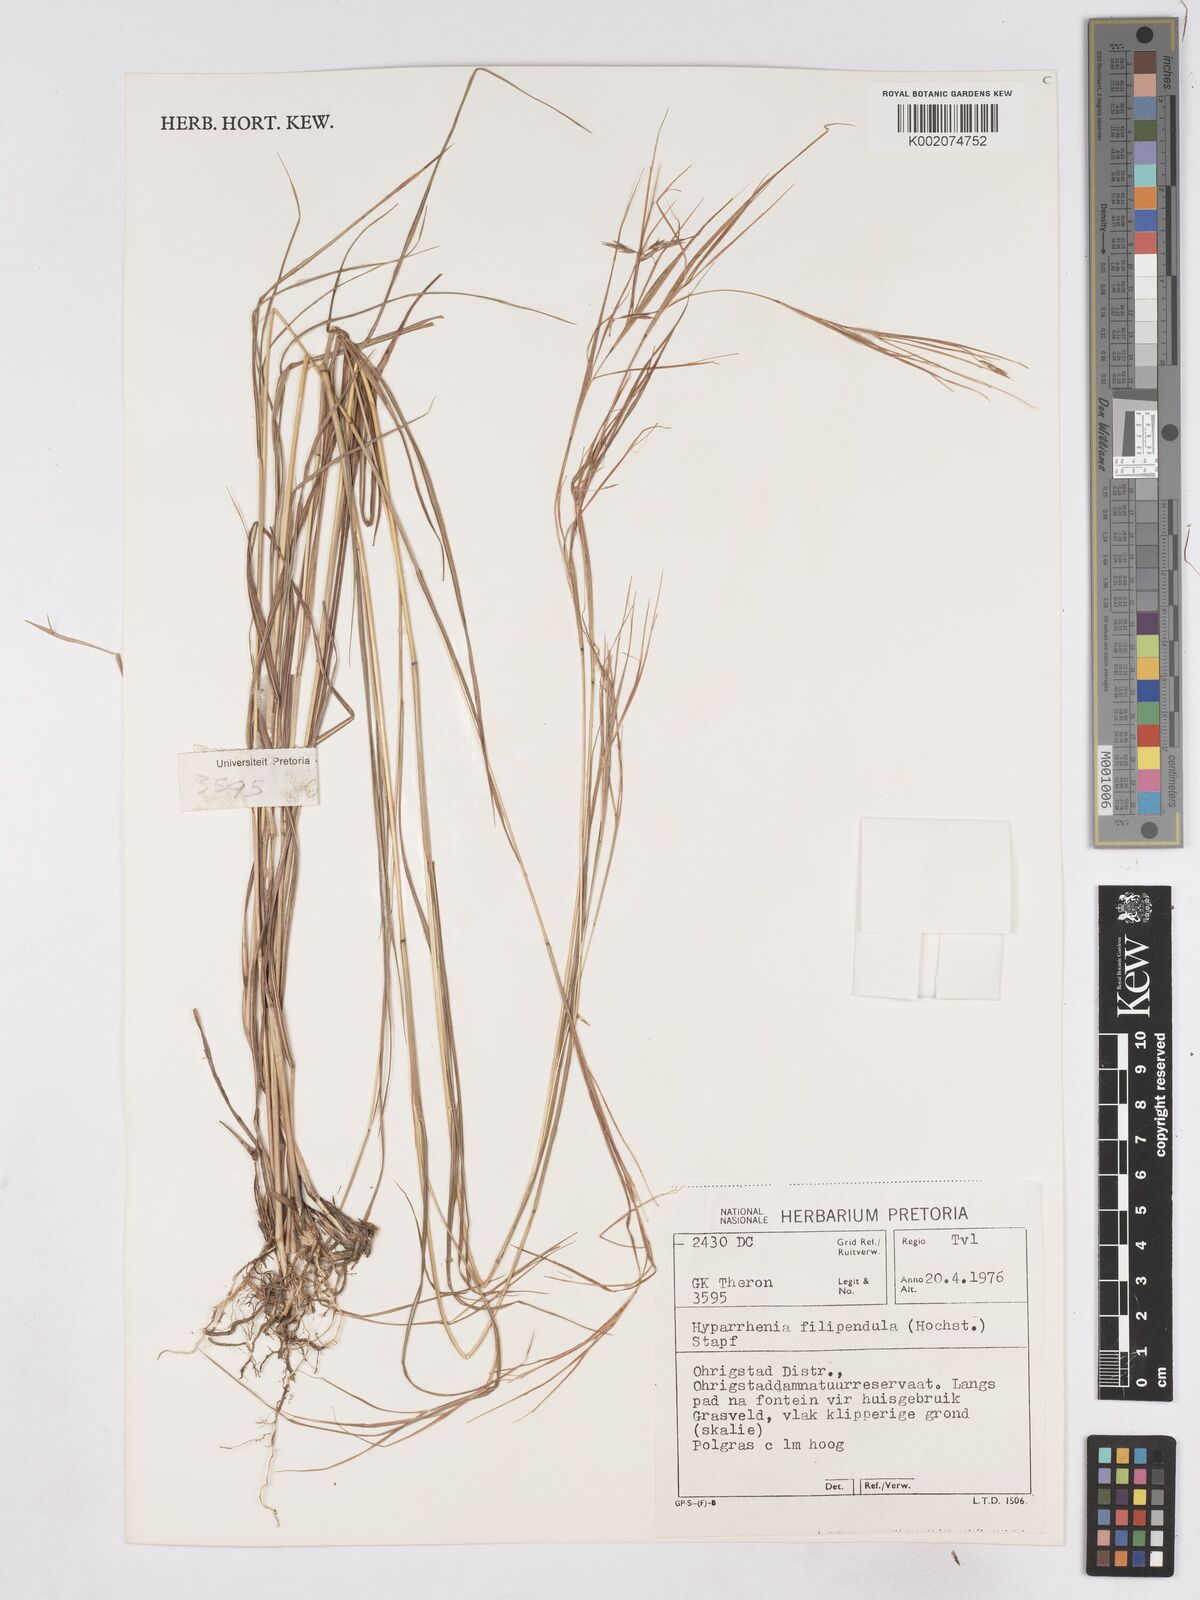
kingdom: Plantae
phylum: Tracheophyta
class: Liliopsida
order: Poales
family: Poaceae
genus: Hyparrhenia
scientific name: Hyparrhenia filipendula
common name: Tambookie grass
